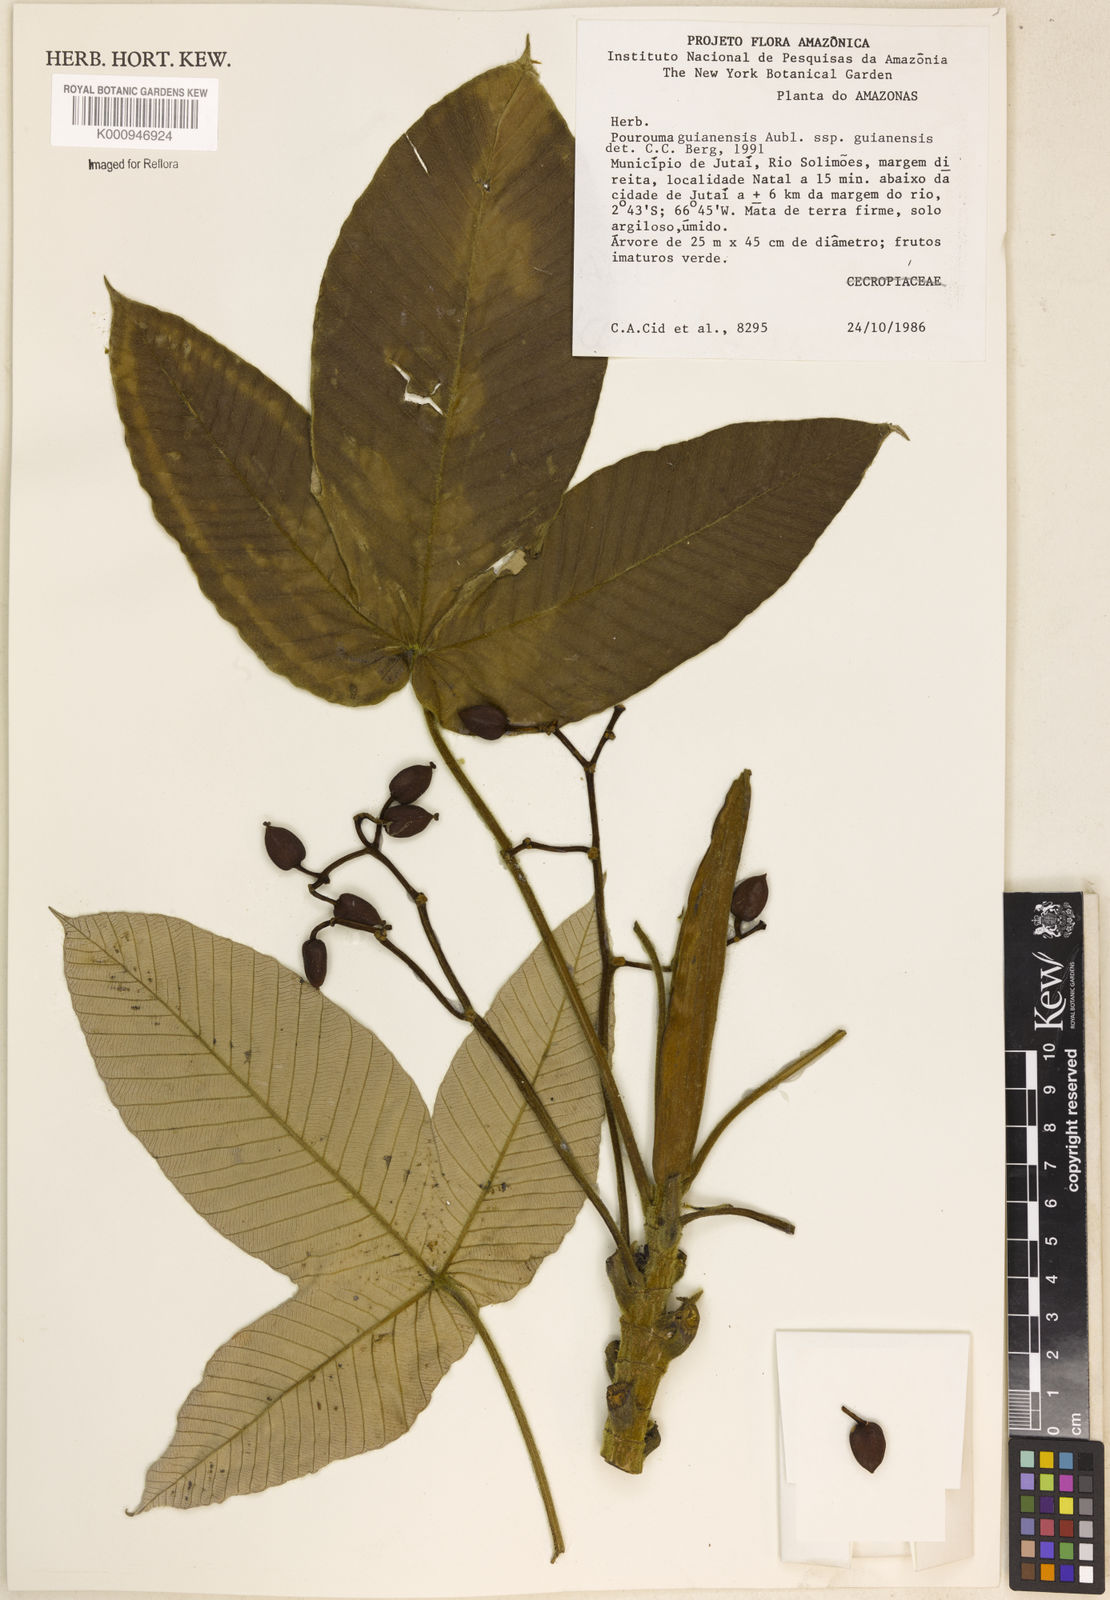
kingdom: Plantae
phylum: Tracheophyta
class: Magnoliopsida
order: Rosales
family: Urticaceae
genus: Pourouma
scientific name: Pourouma guianensis
